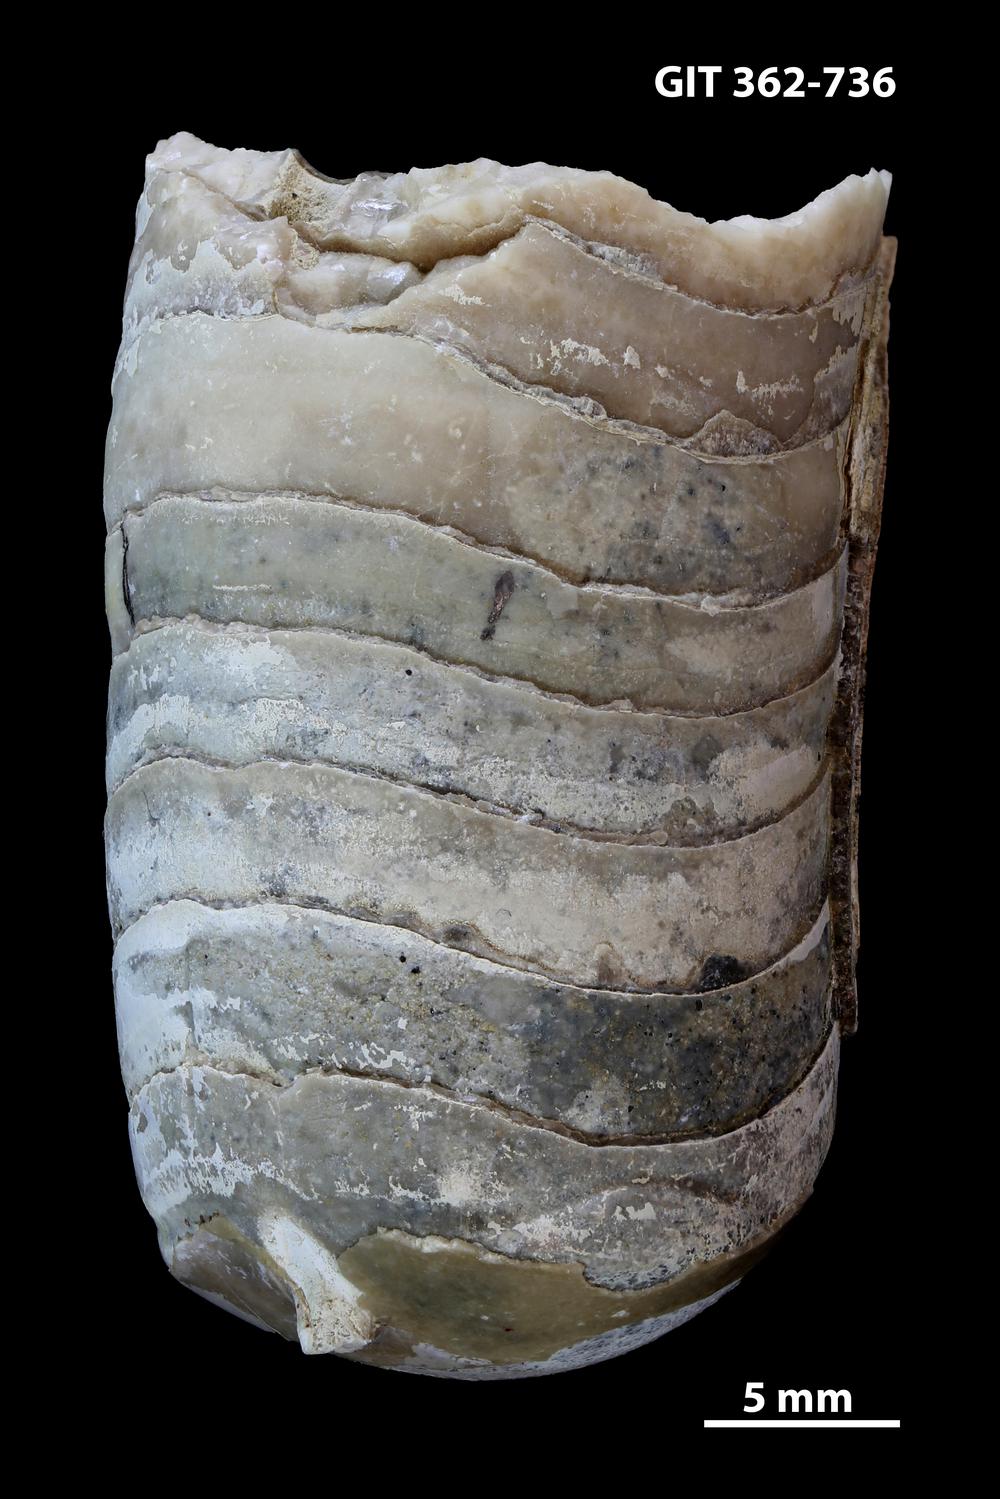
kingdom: Animalia
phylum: Mollusca
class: Cephalopoda
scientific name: Cephalopoda
